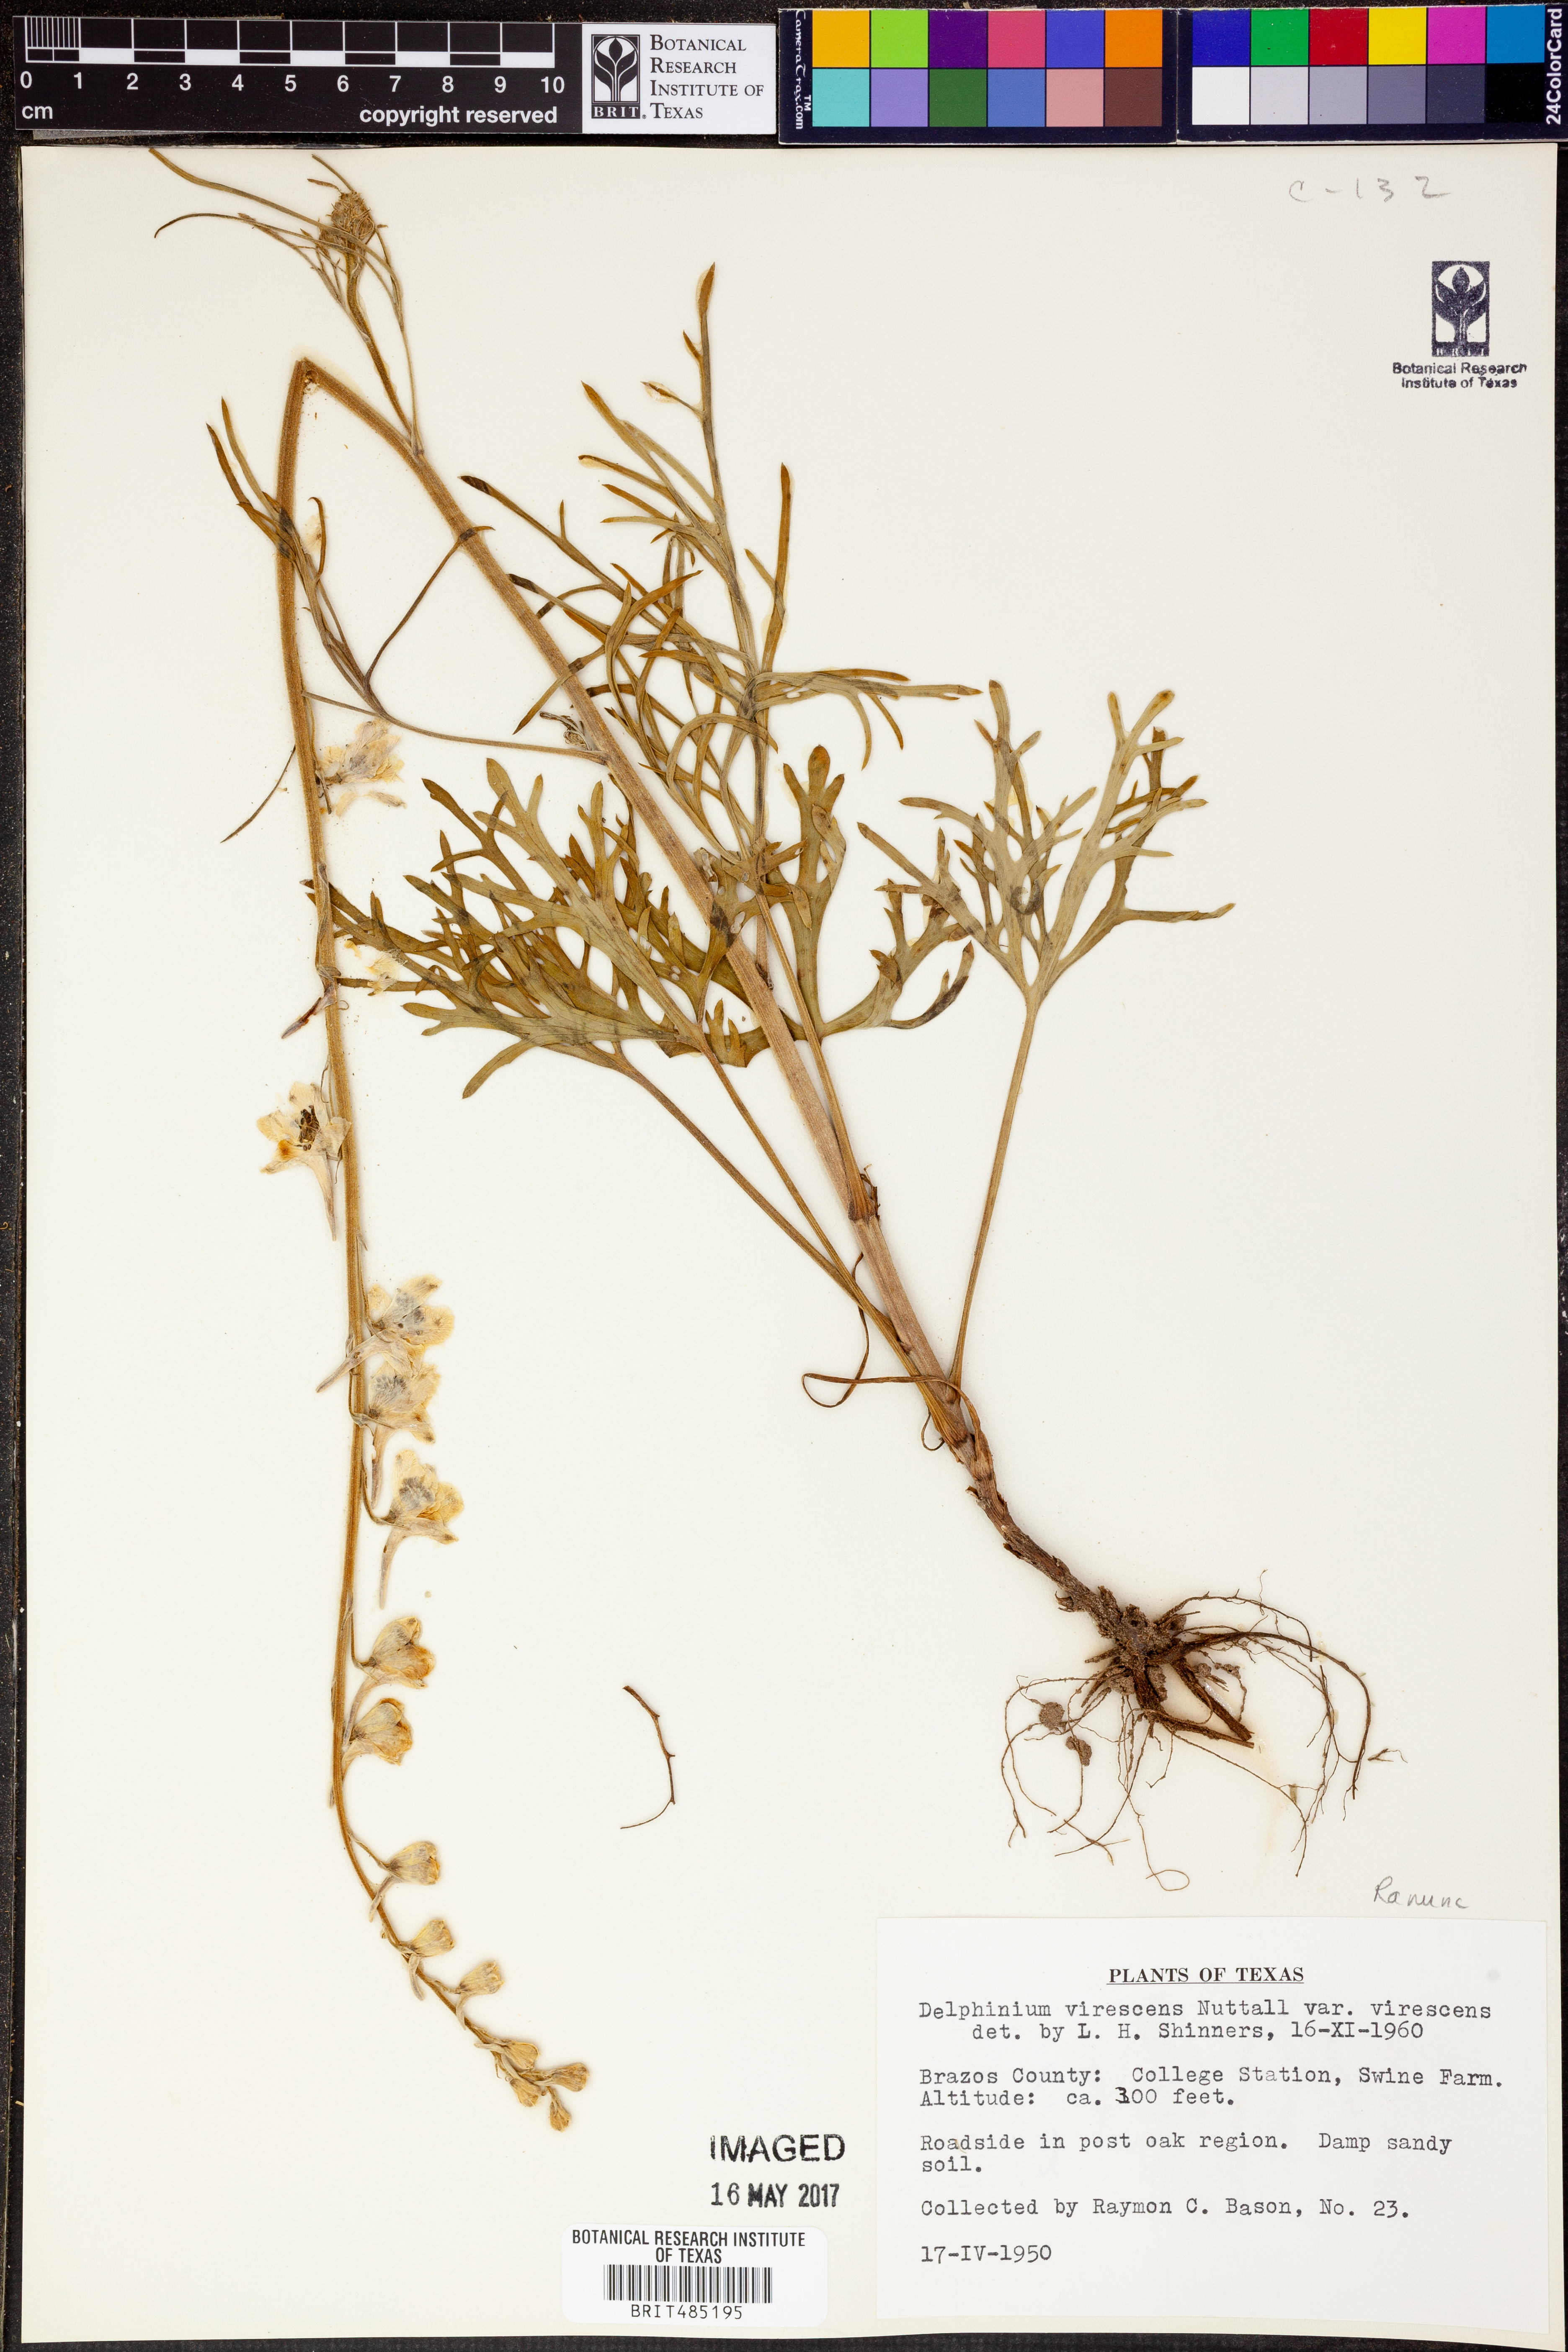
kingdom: Plantae
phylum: Tracheophyta
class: Magnoliopsida
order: Ranunculales
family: Ranunculaceae
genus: Delphinium
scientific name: Delphinium carolinianum
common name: Carolina larkspur
